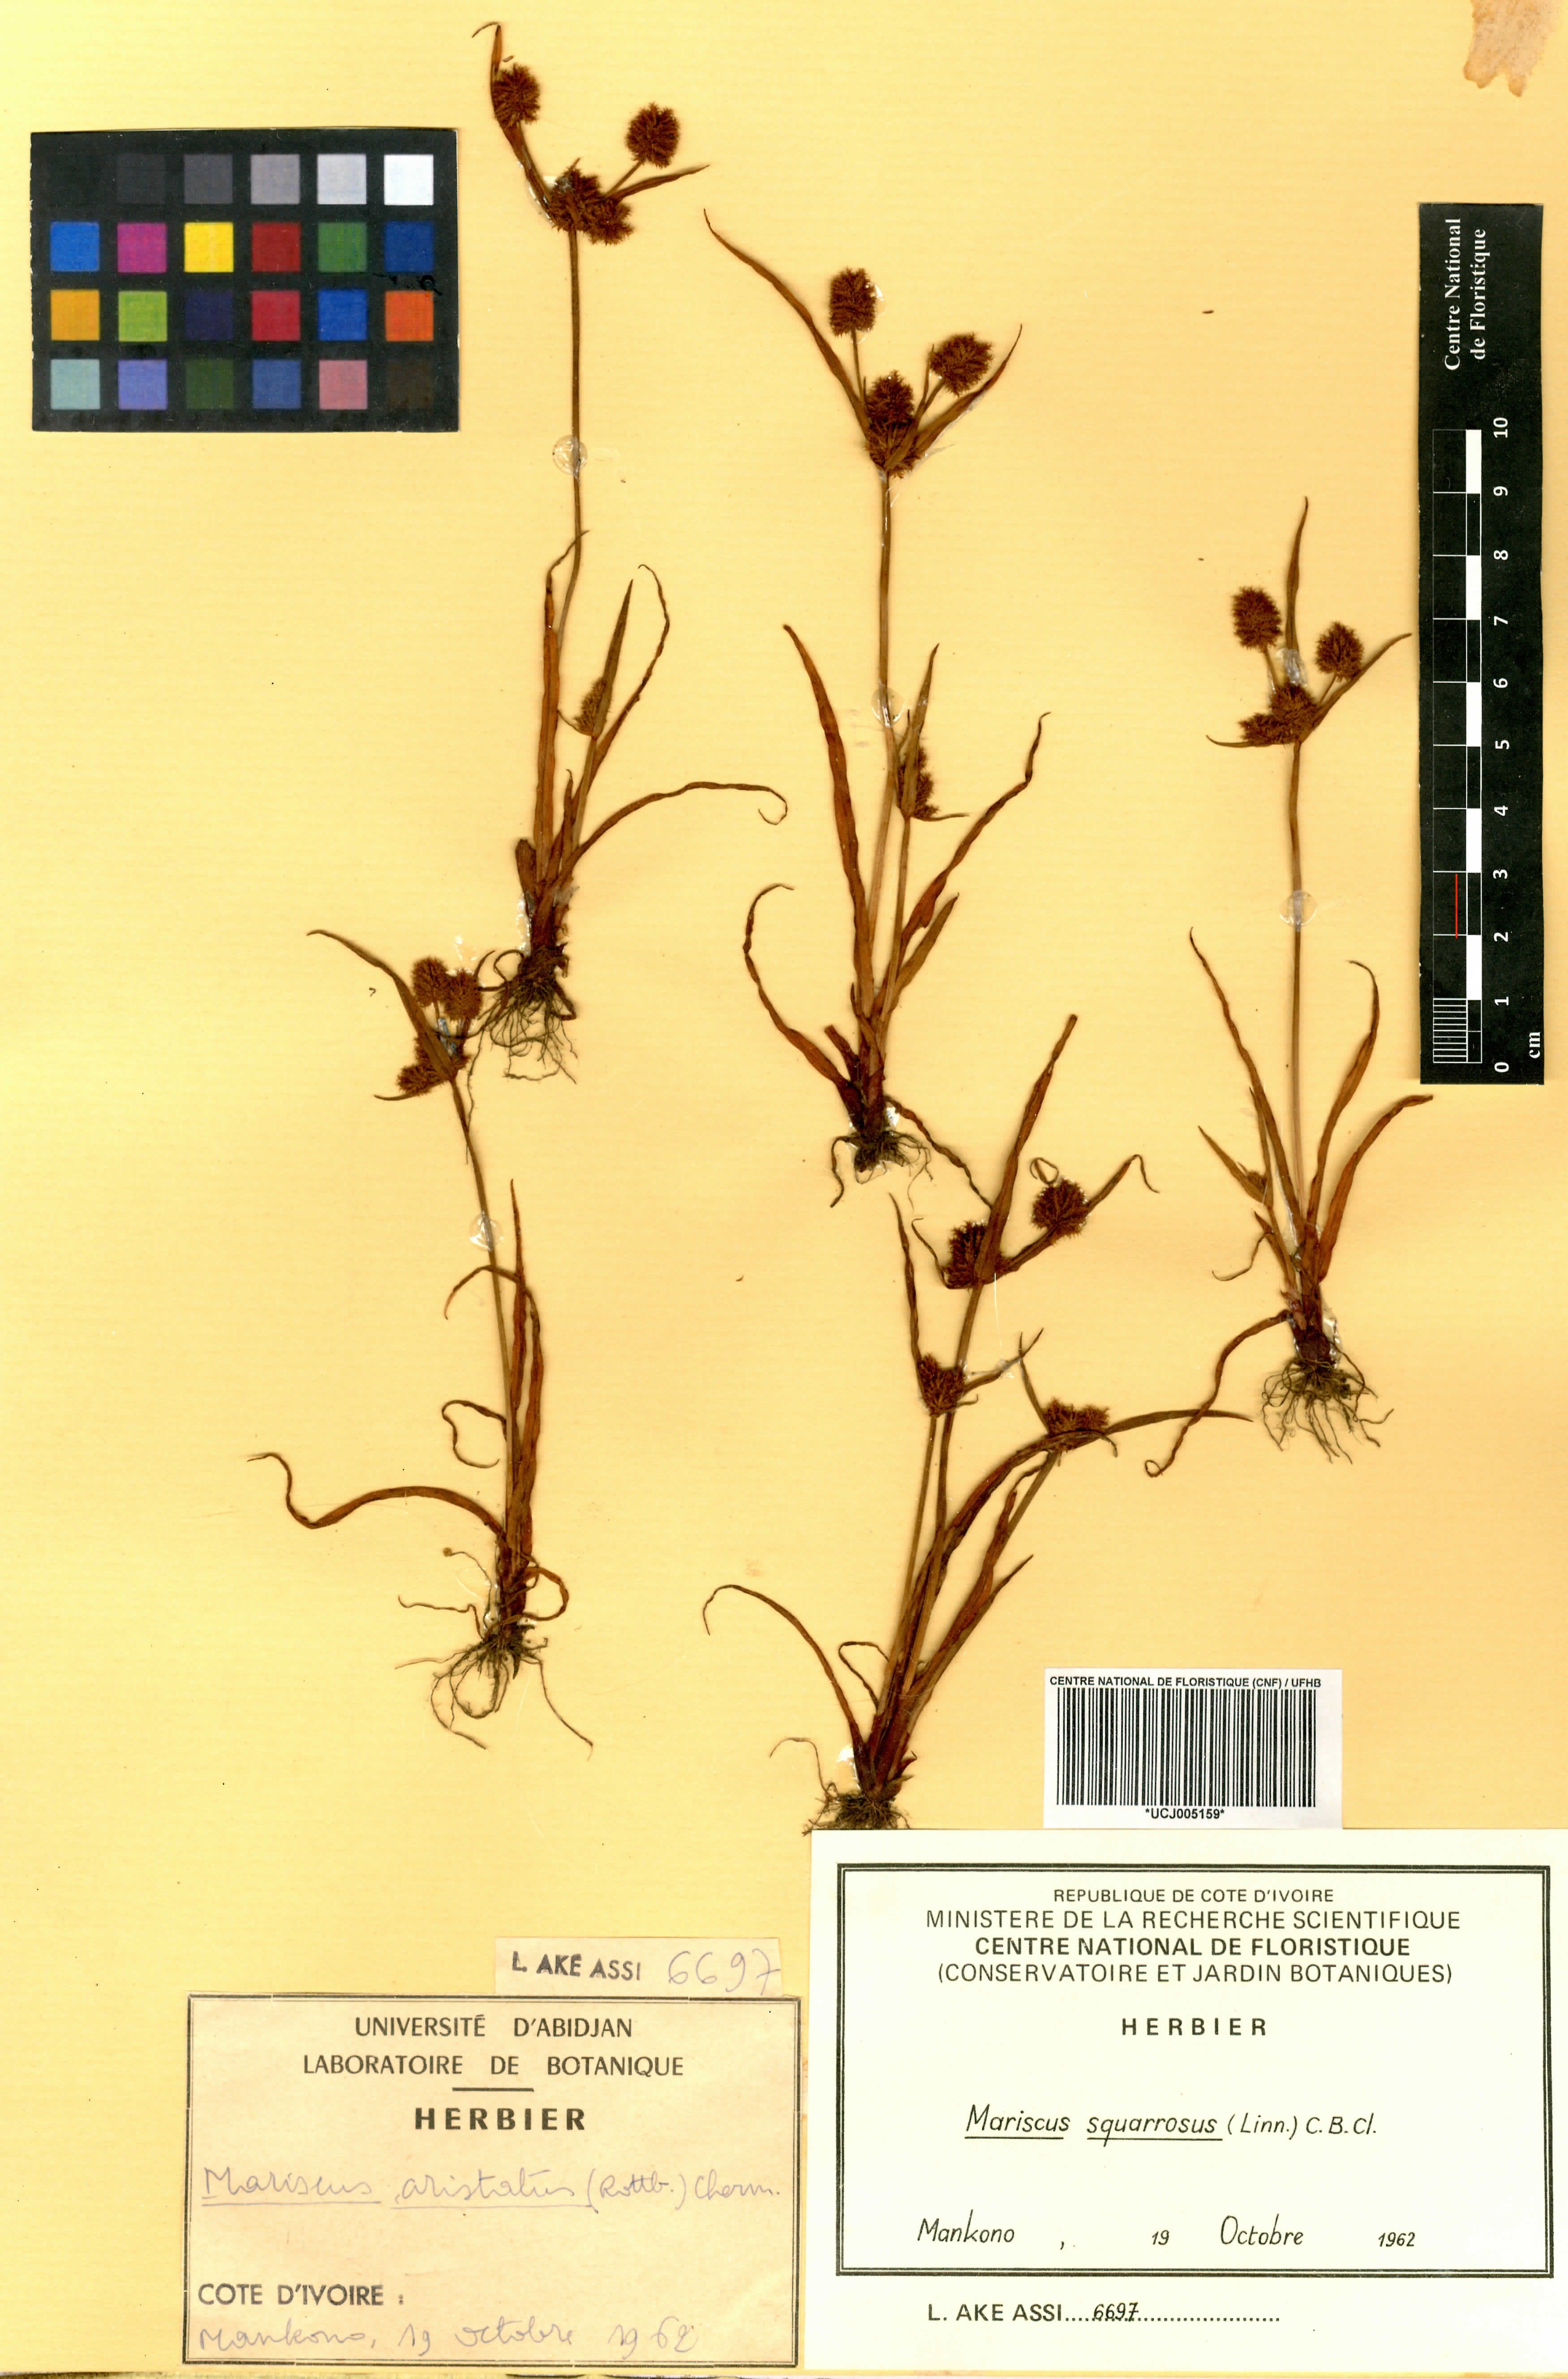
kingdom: Plantae
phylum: Tracheophyta
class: Liliopsida
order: Poales
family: Cyperaceae
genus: Cyperus
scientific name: Cyperus squarrosus
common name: Awned cyperus
